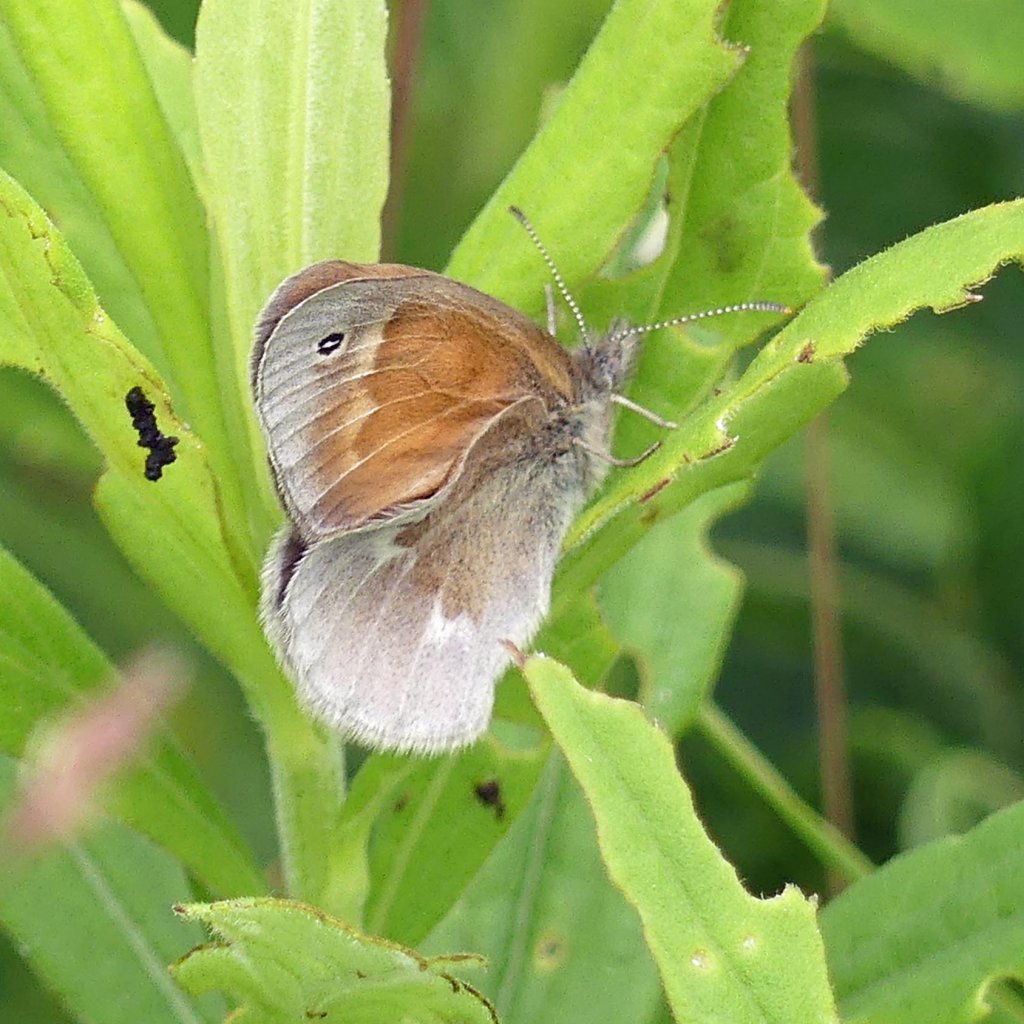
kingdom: Animalia
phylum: Arthropoda
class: Insecta
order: Lepidoptera
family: Nymphalidae
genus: Coenonympha
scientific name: Coenonympha tullia
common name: Large Heath
